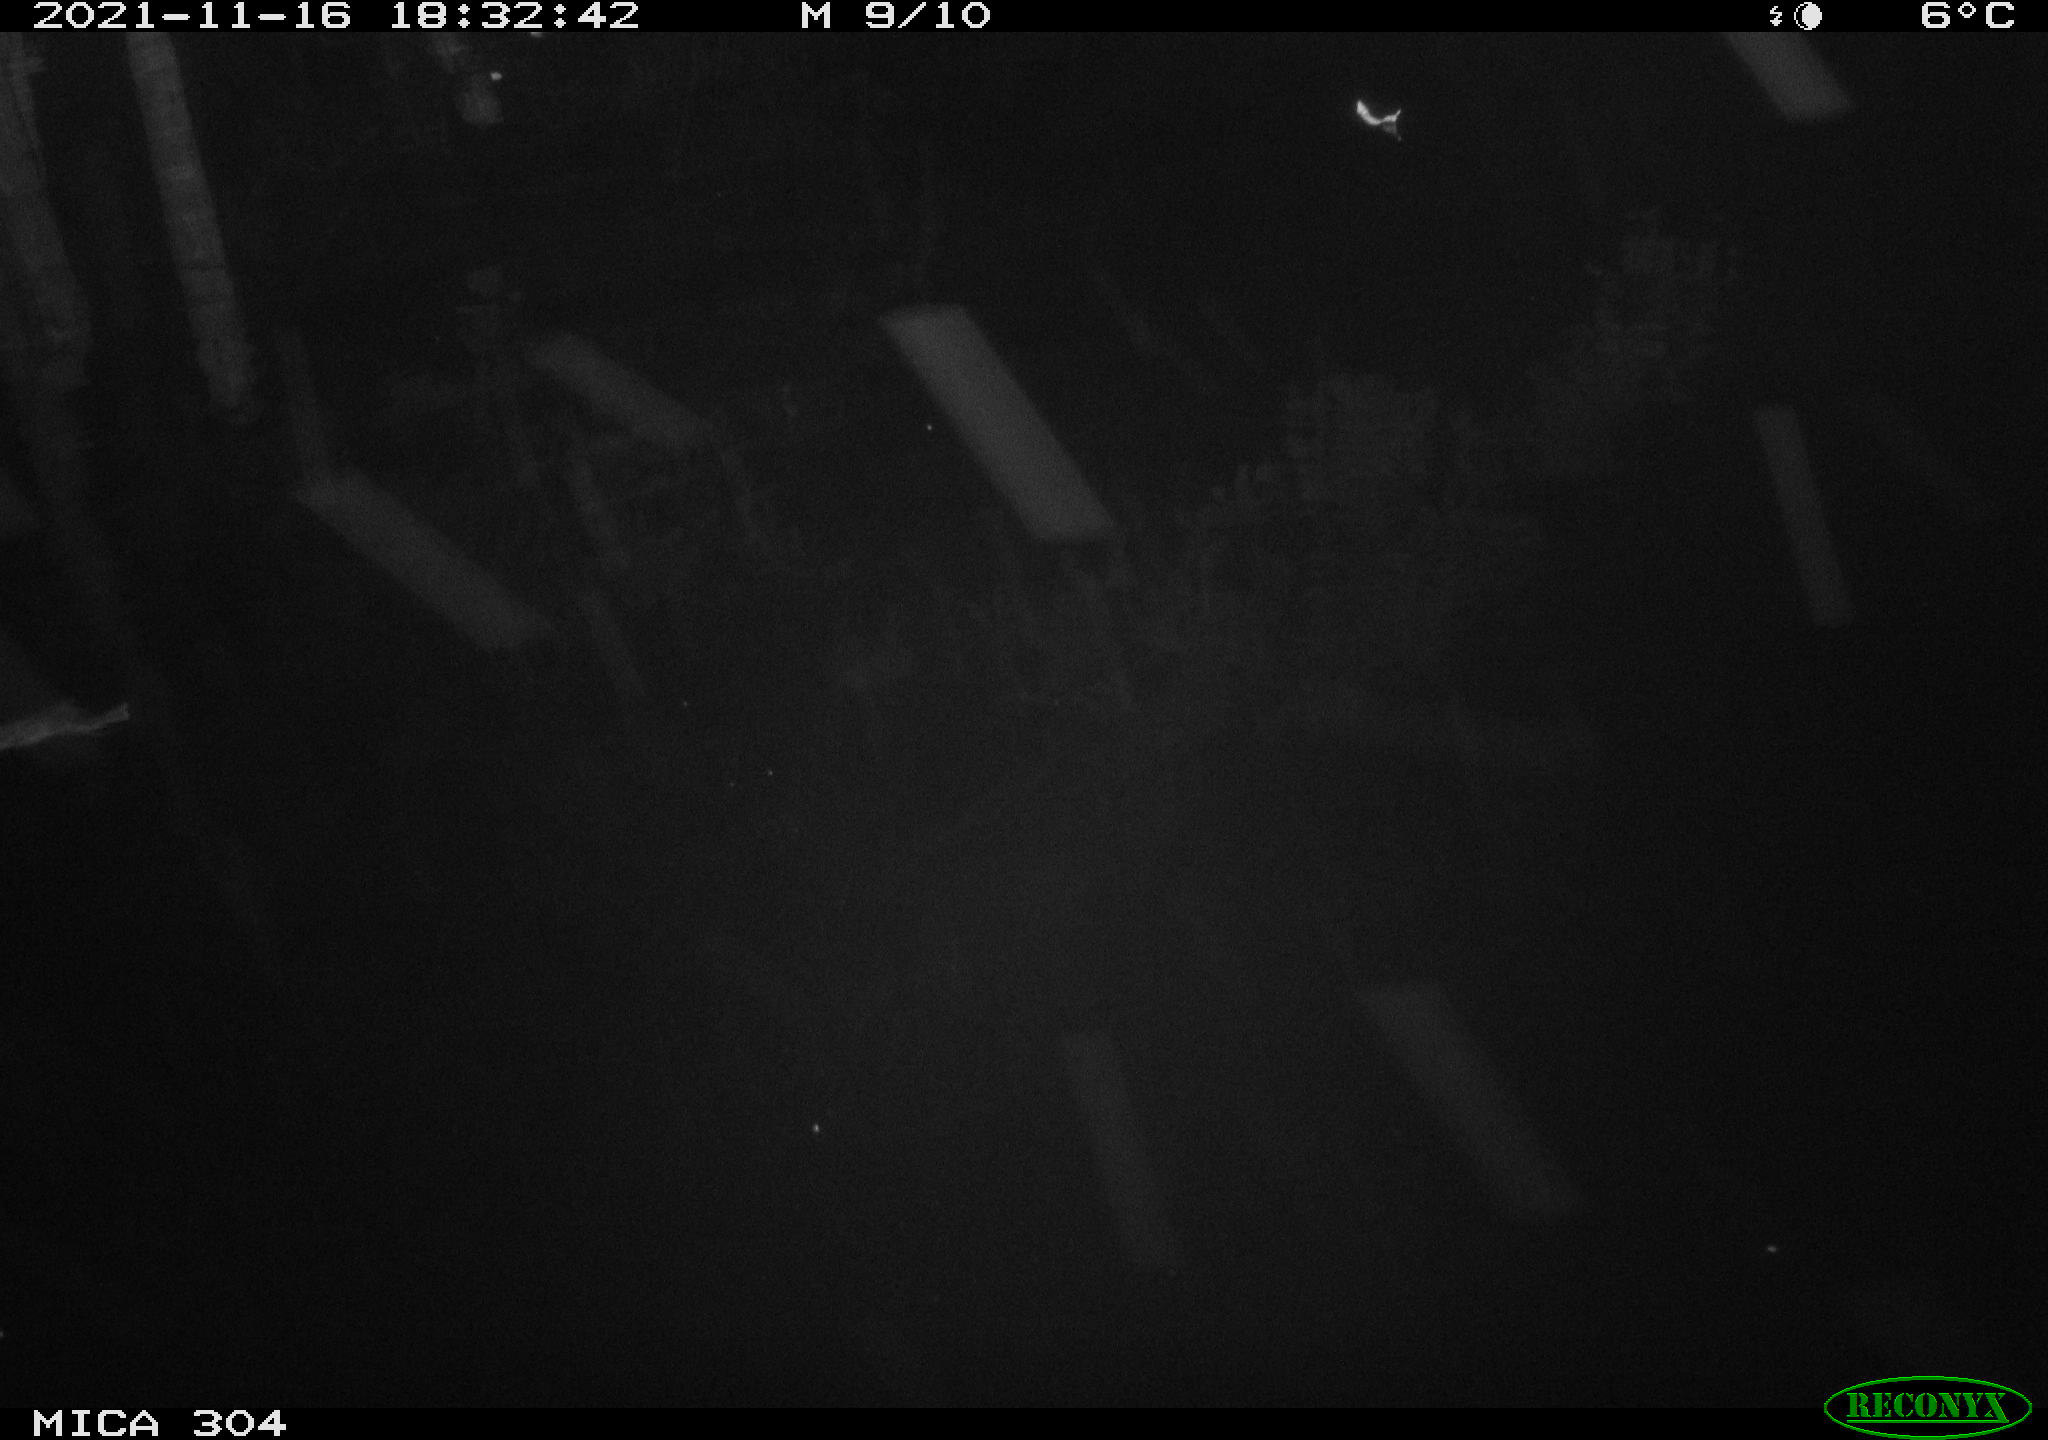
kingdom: Animalia
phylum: Chordata
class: Aves
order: Gruiformes
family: Rallidae
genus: Fulica
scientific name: Fulica atra
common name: Eurasian coot
